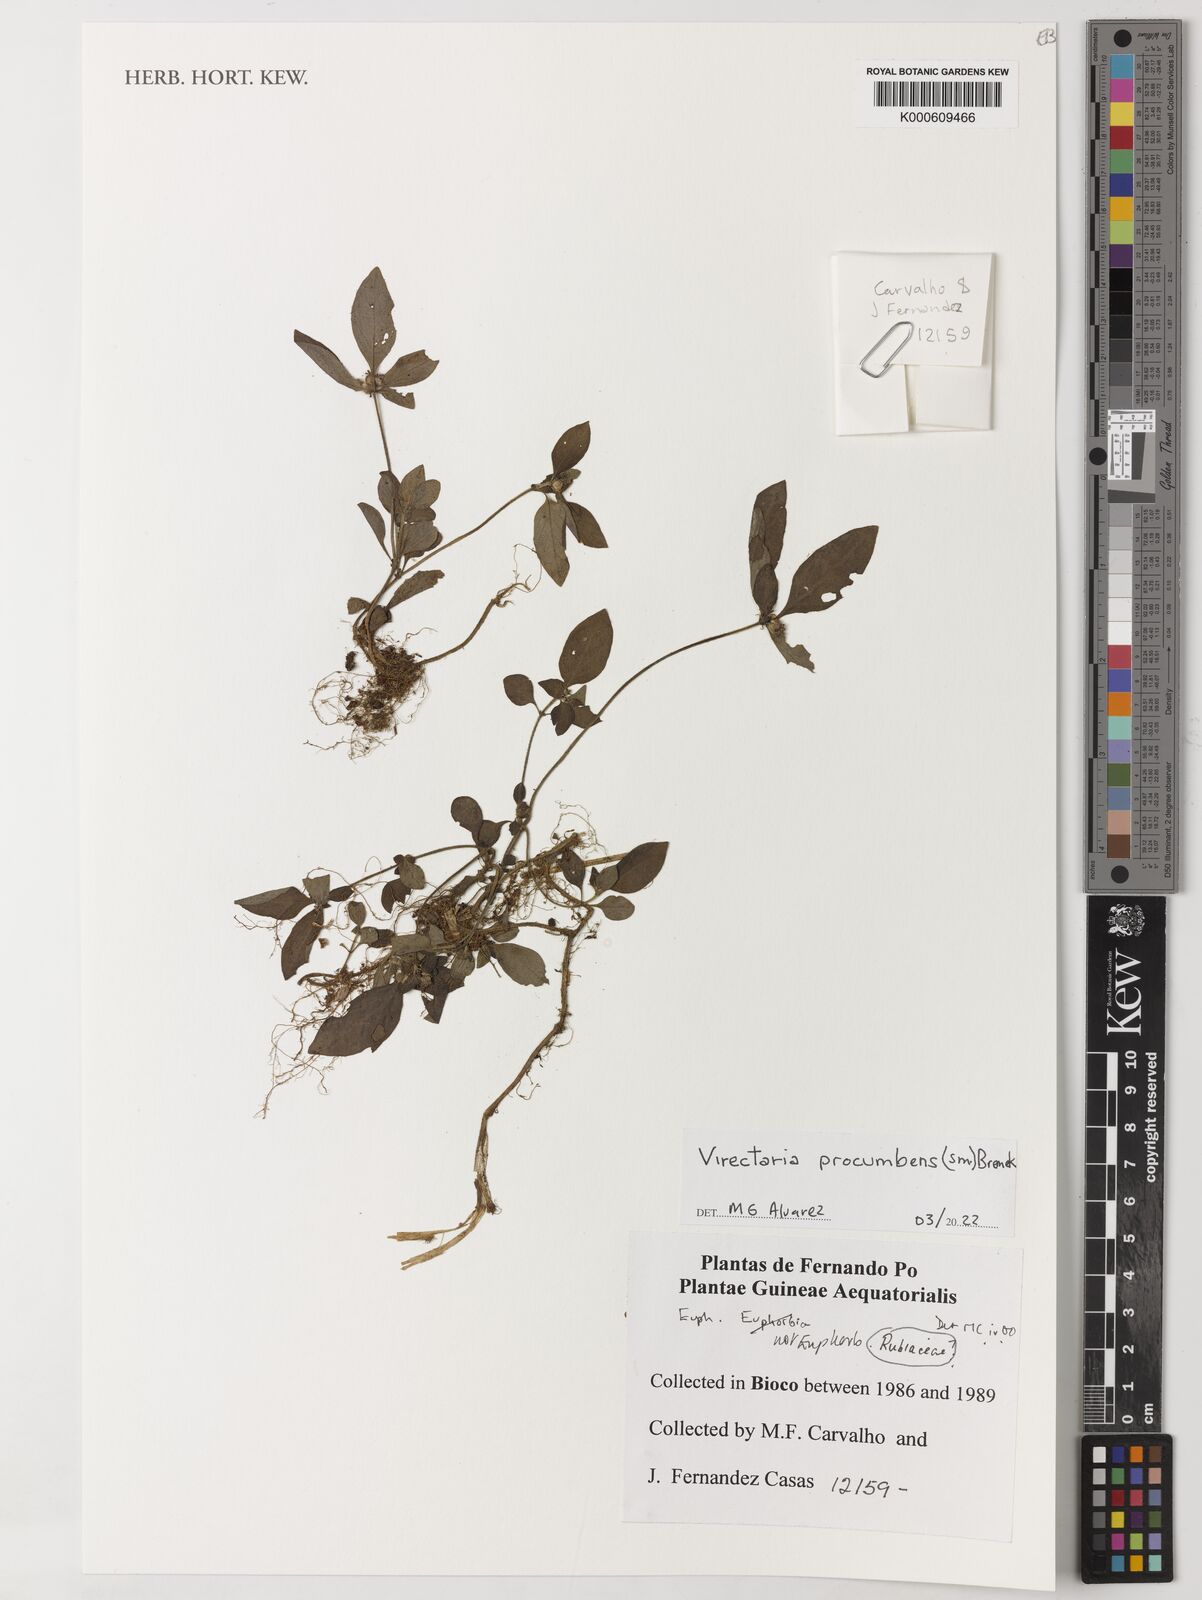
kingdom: Plantae
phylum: Tracheophyta
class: Magnoliopsida
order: Gentianales
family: Rubiaceae
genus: Virectaria
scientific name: Virectaria procumbens
